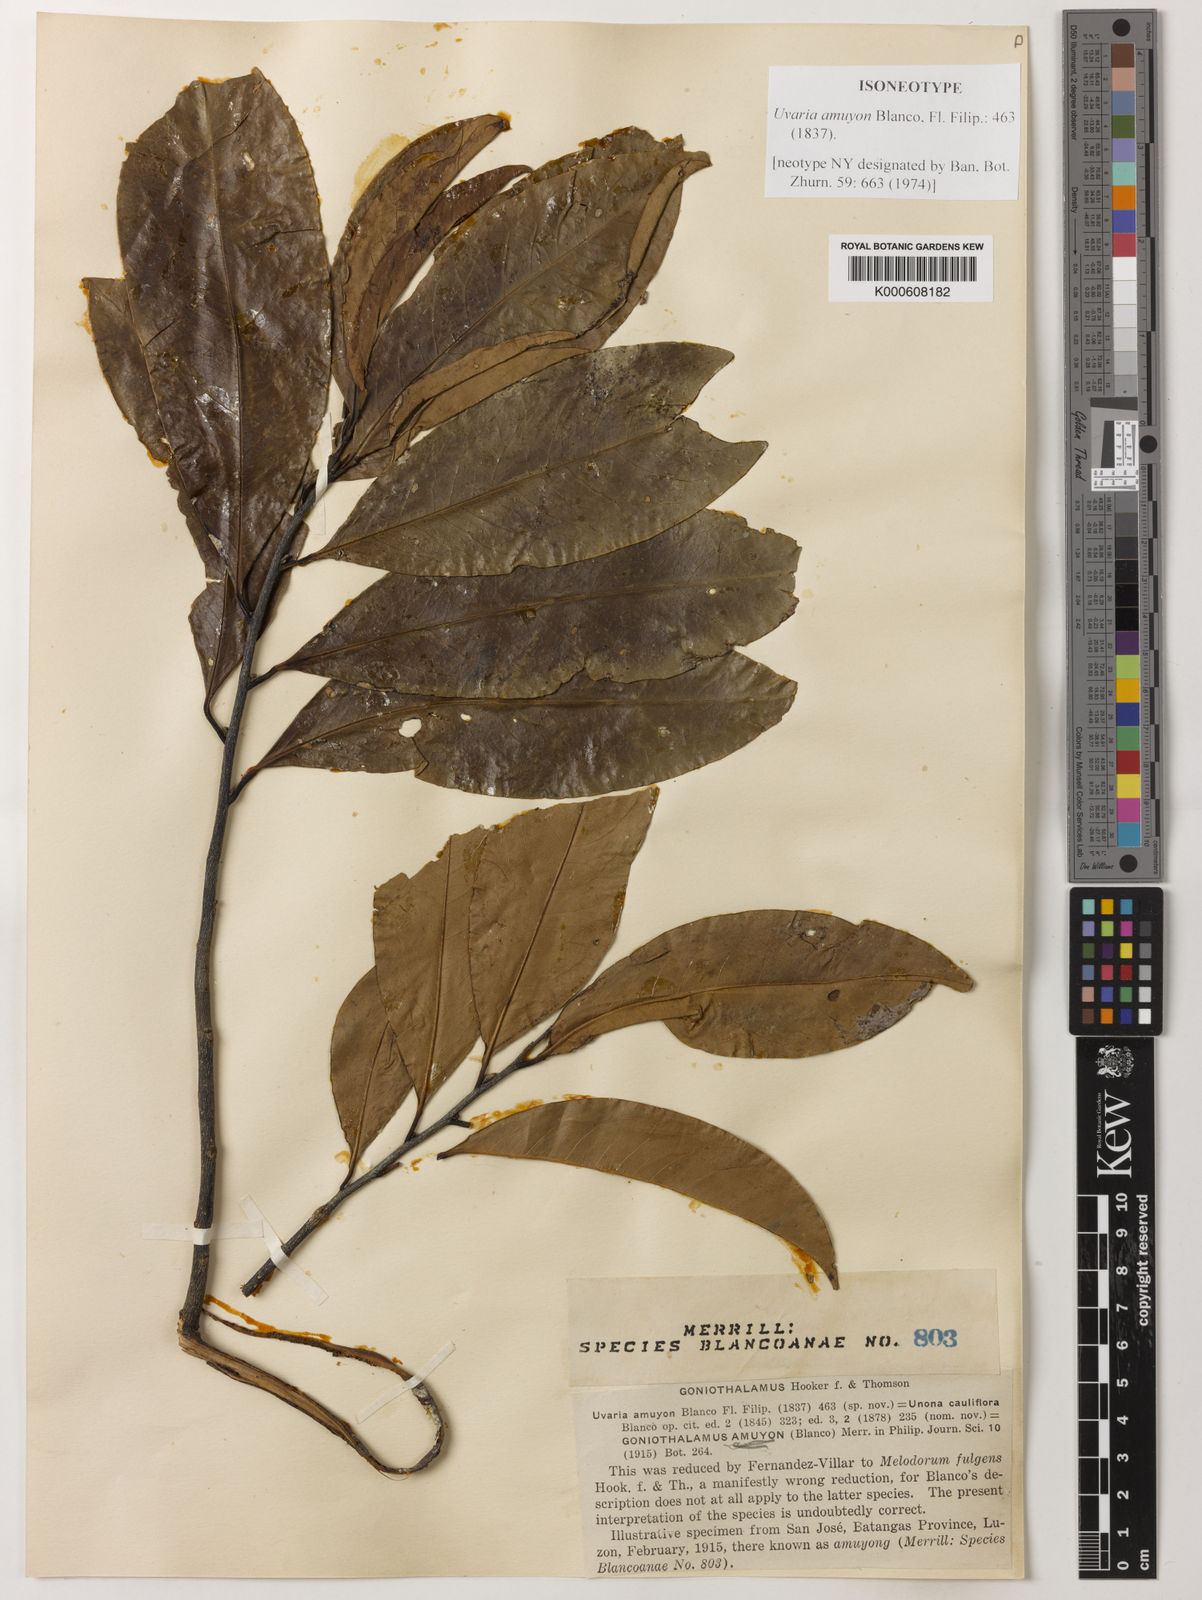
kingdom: Plantae
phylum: Tracheophyta
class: Magnoliopsida
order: Magnoliales
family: Annonaceae
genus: Goniothalamus
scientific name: Goniothalamus amuyon
